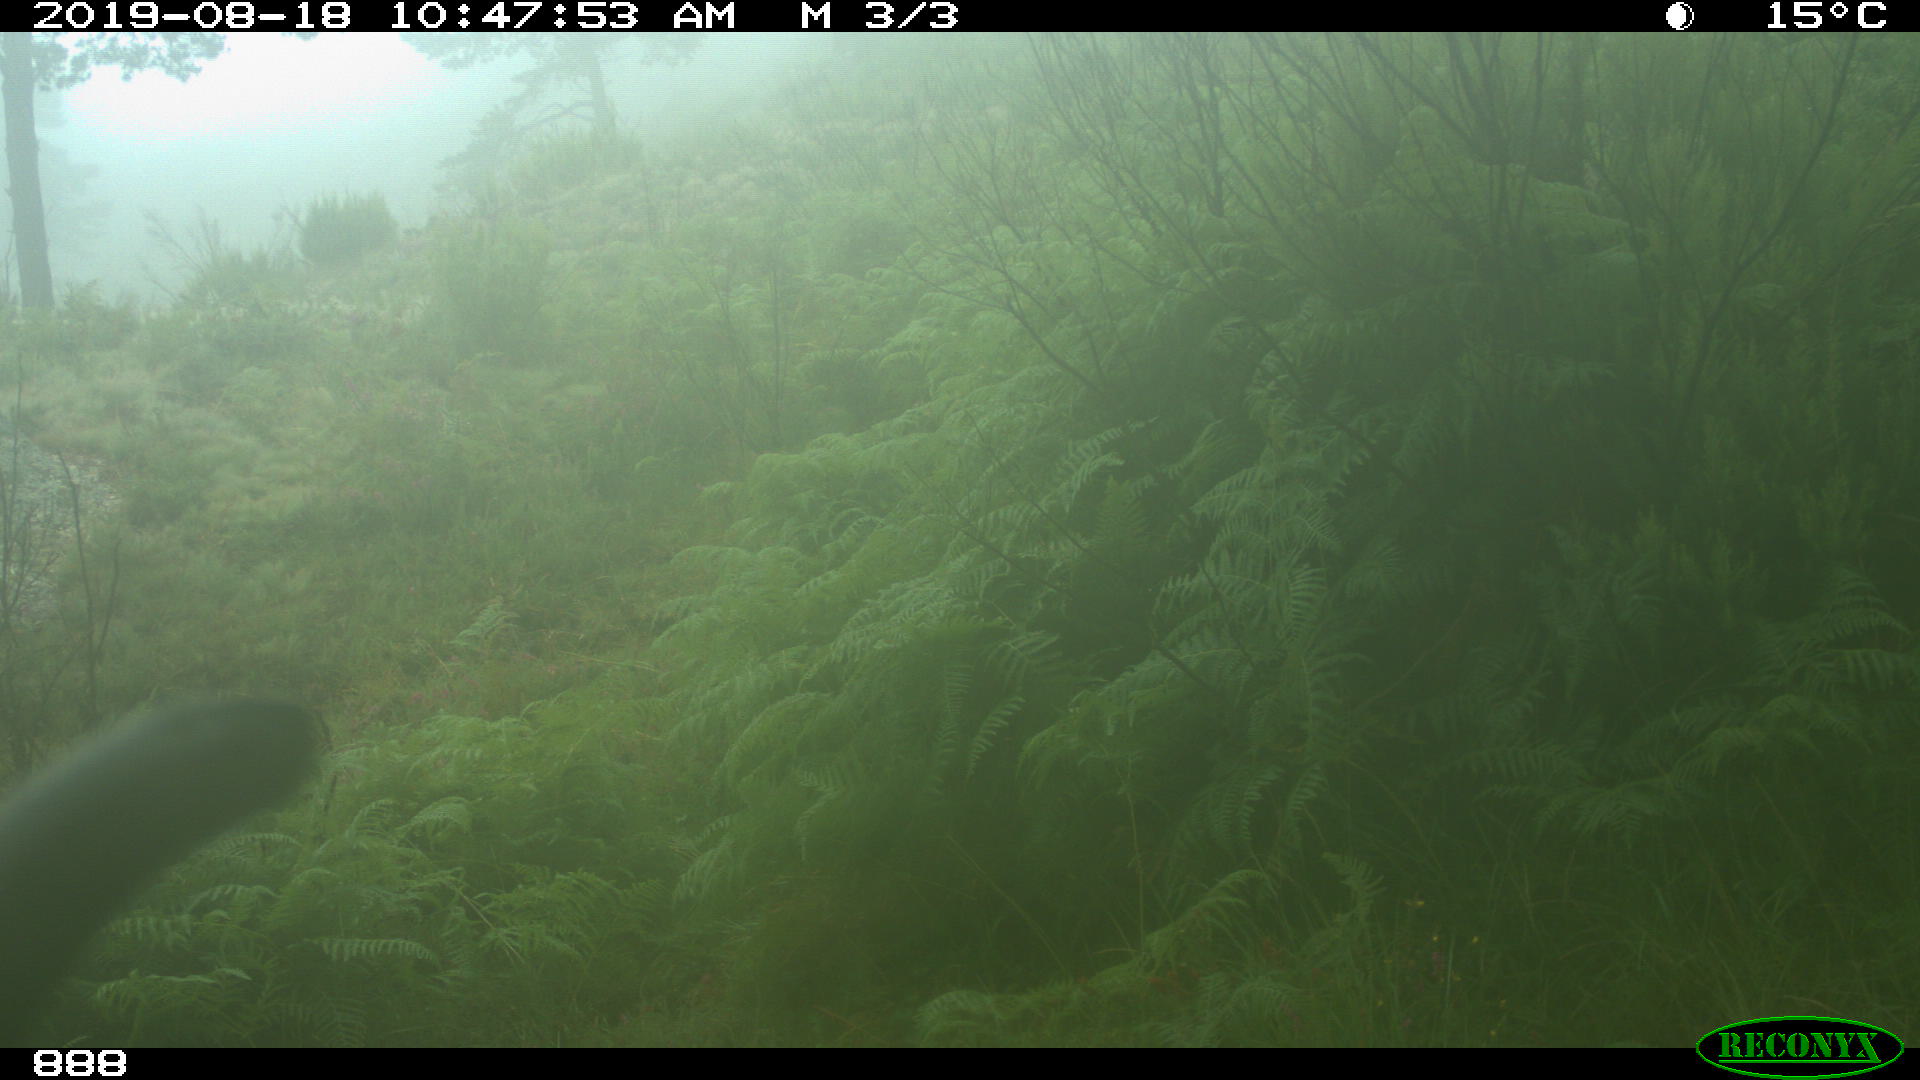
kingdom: Animalia
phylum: Chordata
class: Mammalia
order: Artiodactyla
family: Bovidae
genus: Bos
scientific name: Bos taurus
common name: Domesticated cattle
